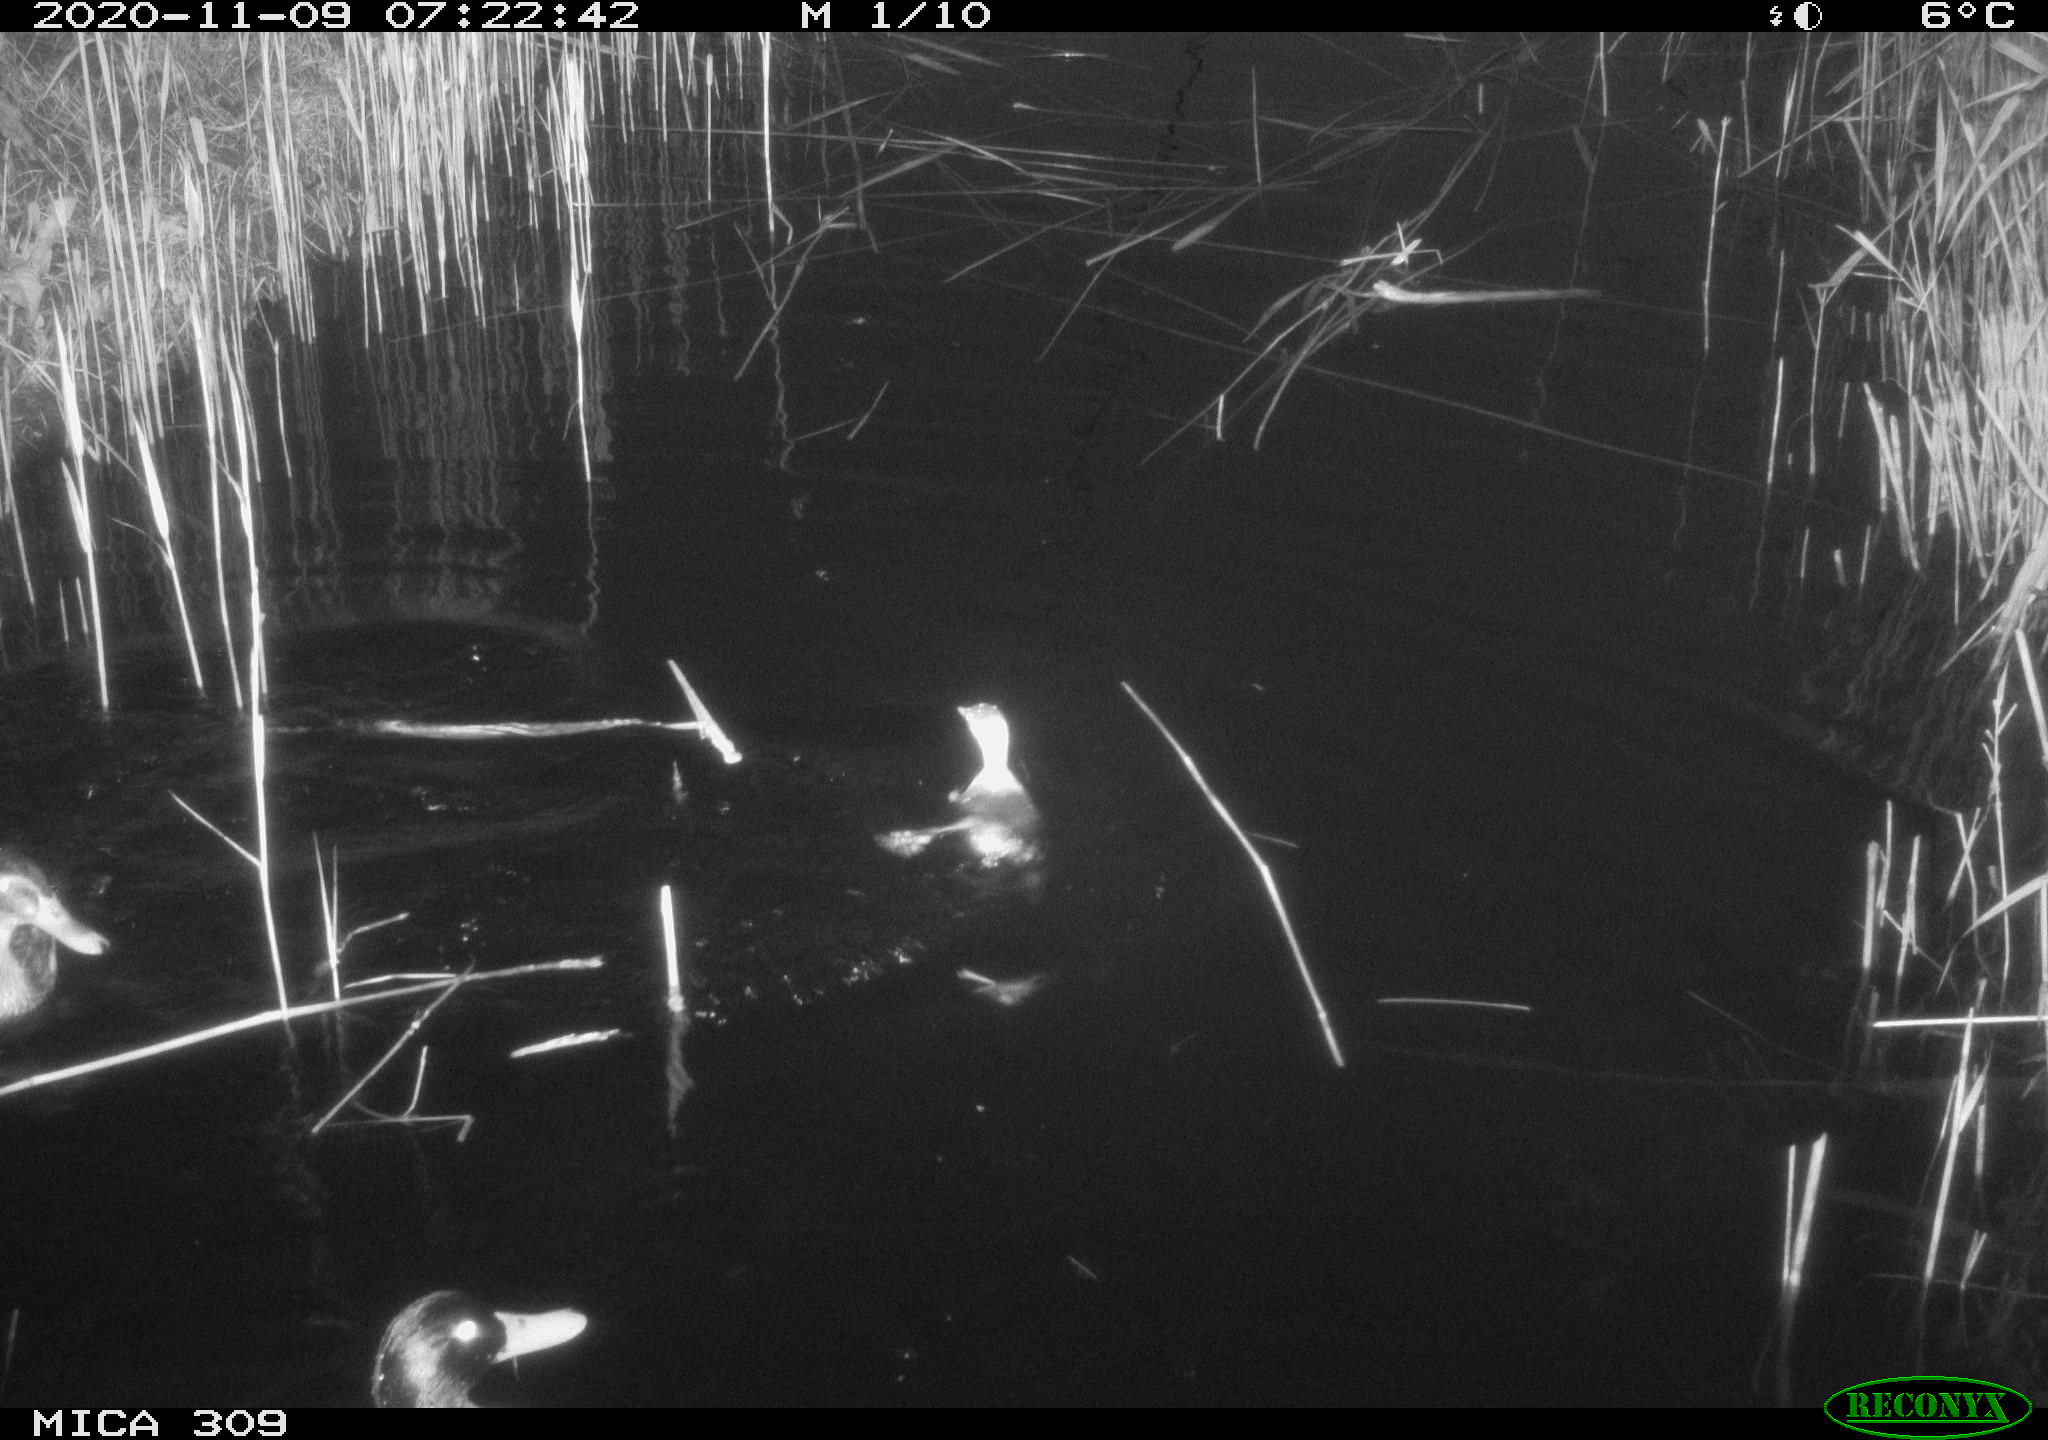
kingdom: Animalia
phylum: Chordata
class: Aves
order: Anseriformes
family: Anatidae
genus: Anas
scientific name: Anas platyrhynchos
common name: Mallard
